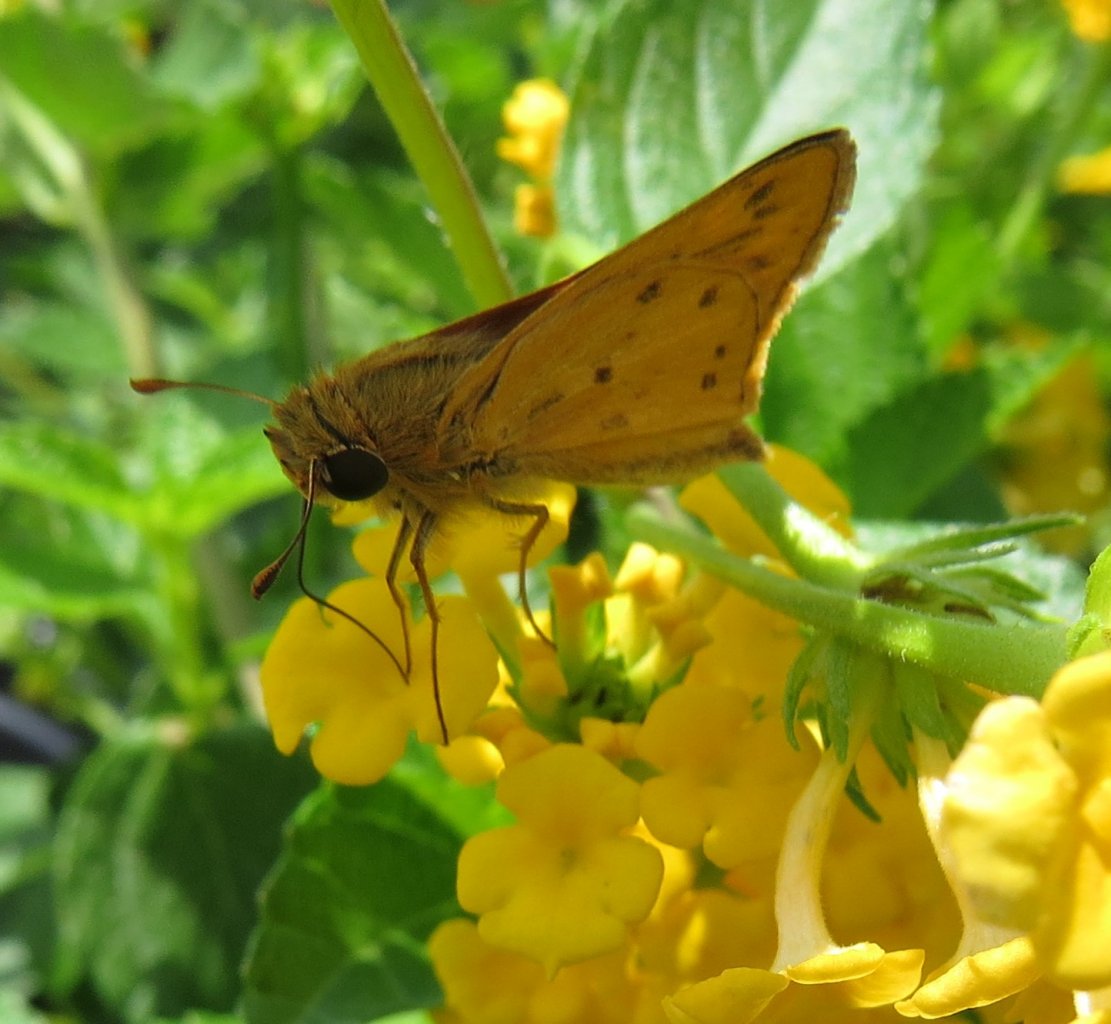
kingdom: Animalia
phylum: Arthropoda
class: Insecta
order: Lepidoptera
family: Hesperiidae
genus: Hylephila
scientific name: Hylephila phyleus
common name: Fiery Skipper
